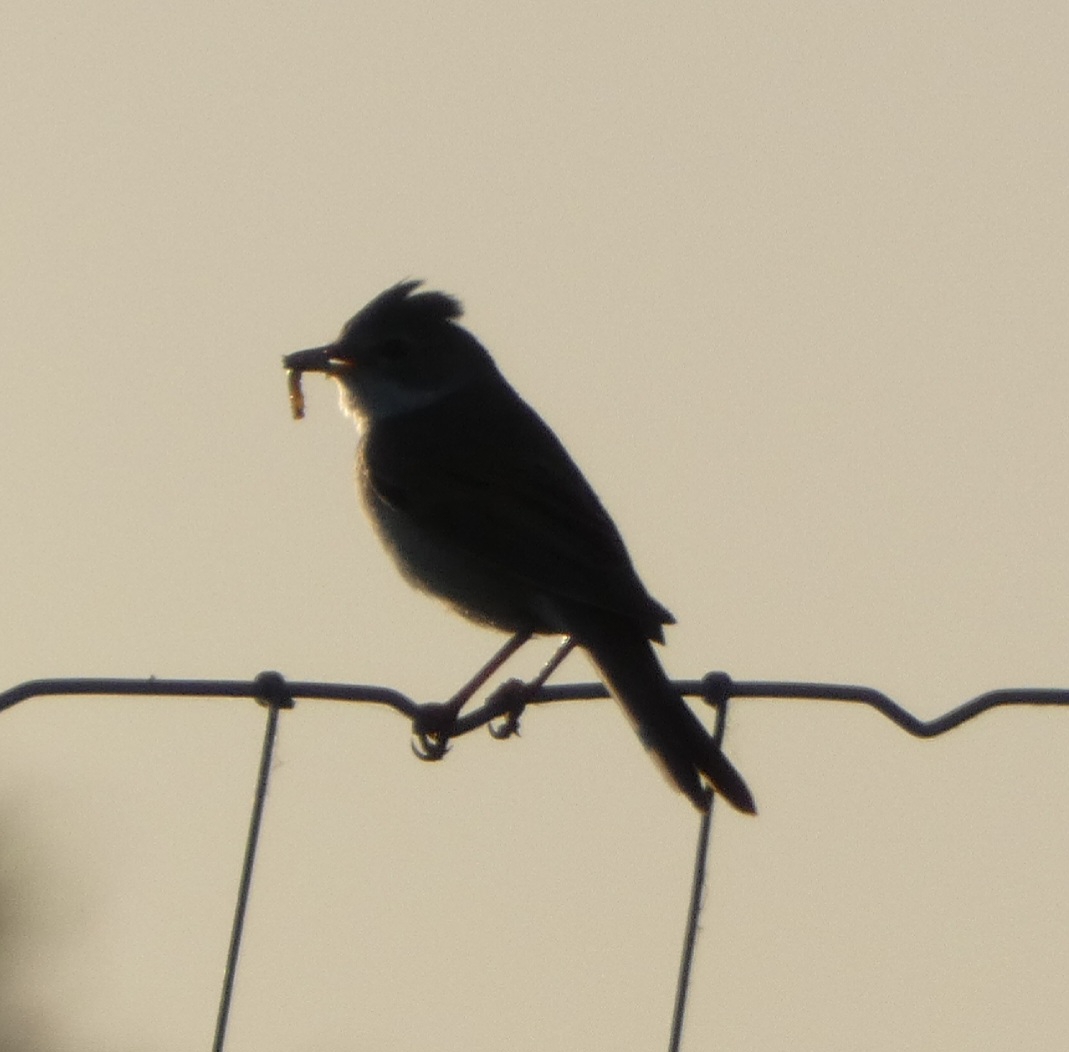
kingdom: Animalia
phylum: Chordata
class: Aves
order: Passeriformes
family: Sylviidae
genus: Sylvia
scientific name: Sylvia communis
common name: Tornsanger
